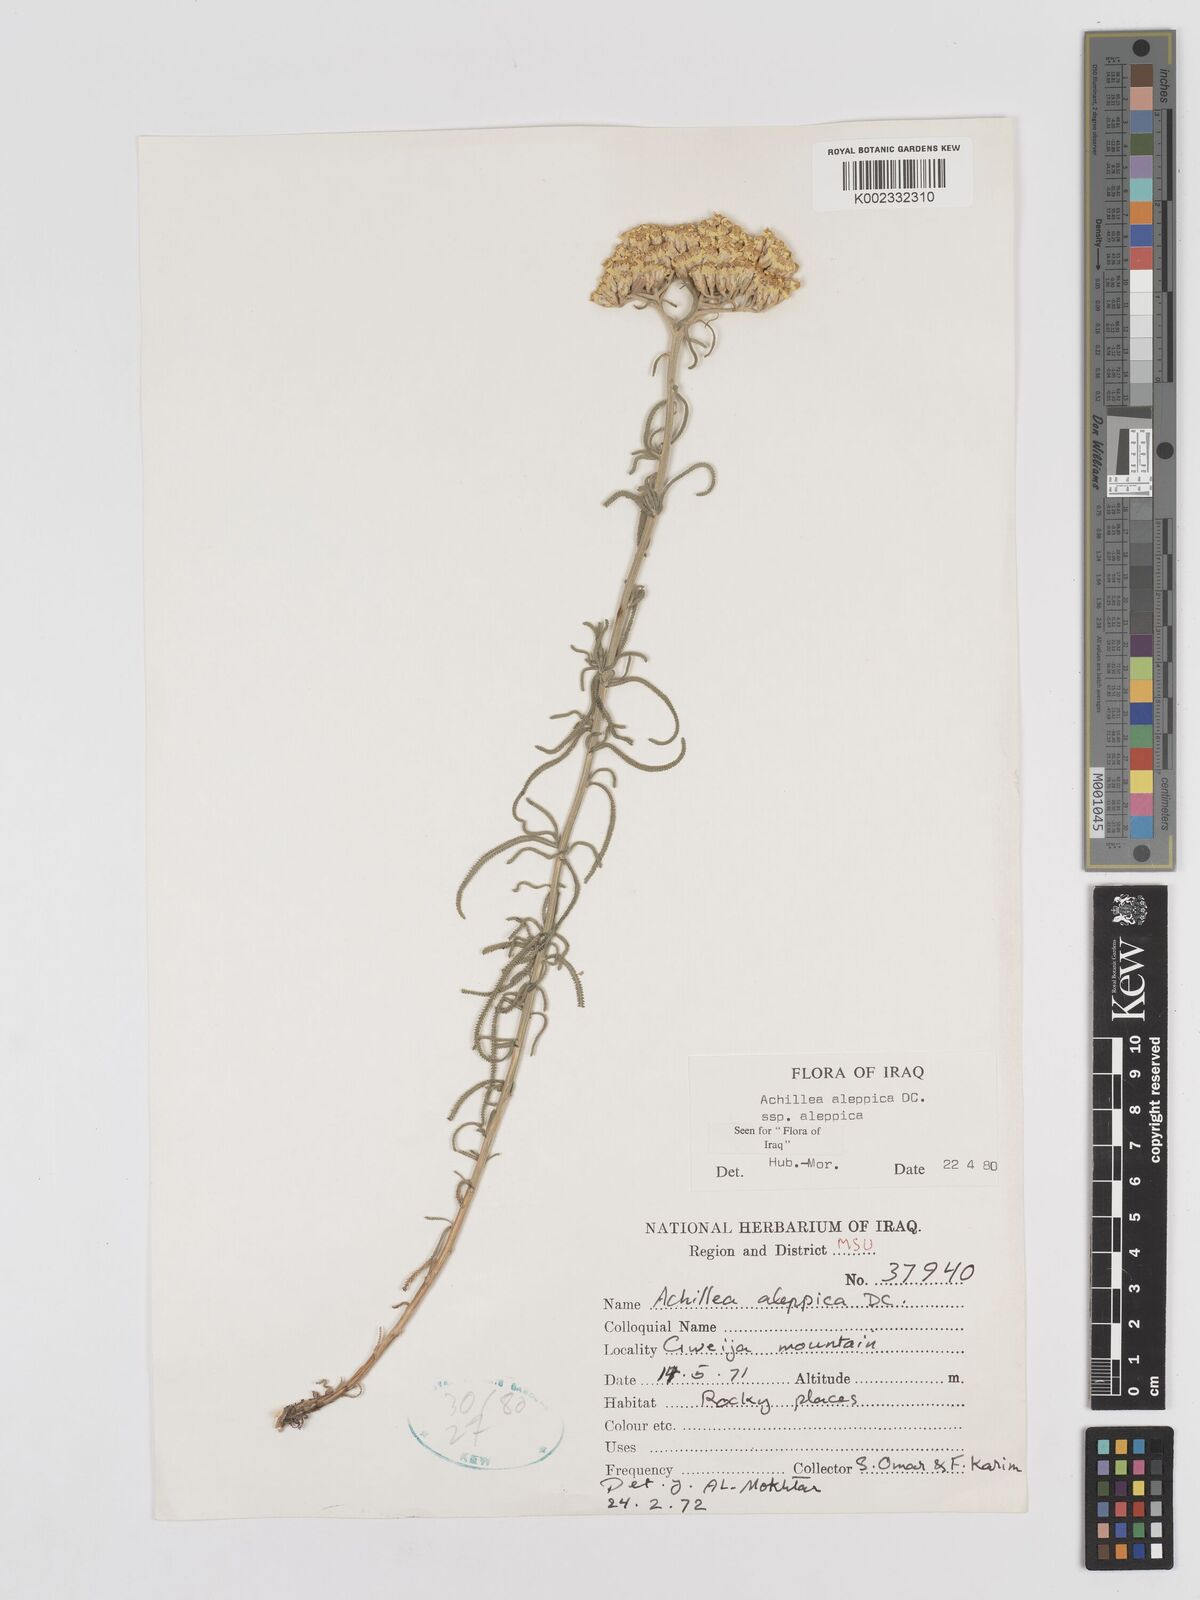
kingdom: Plantae
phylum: Tracheophyta
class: Magnoliopsida
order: Asterales
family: Asteraceae
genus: Achillea
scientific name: Achillea aleppica
